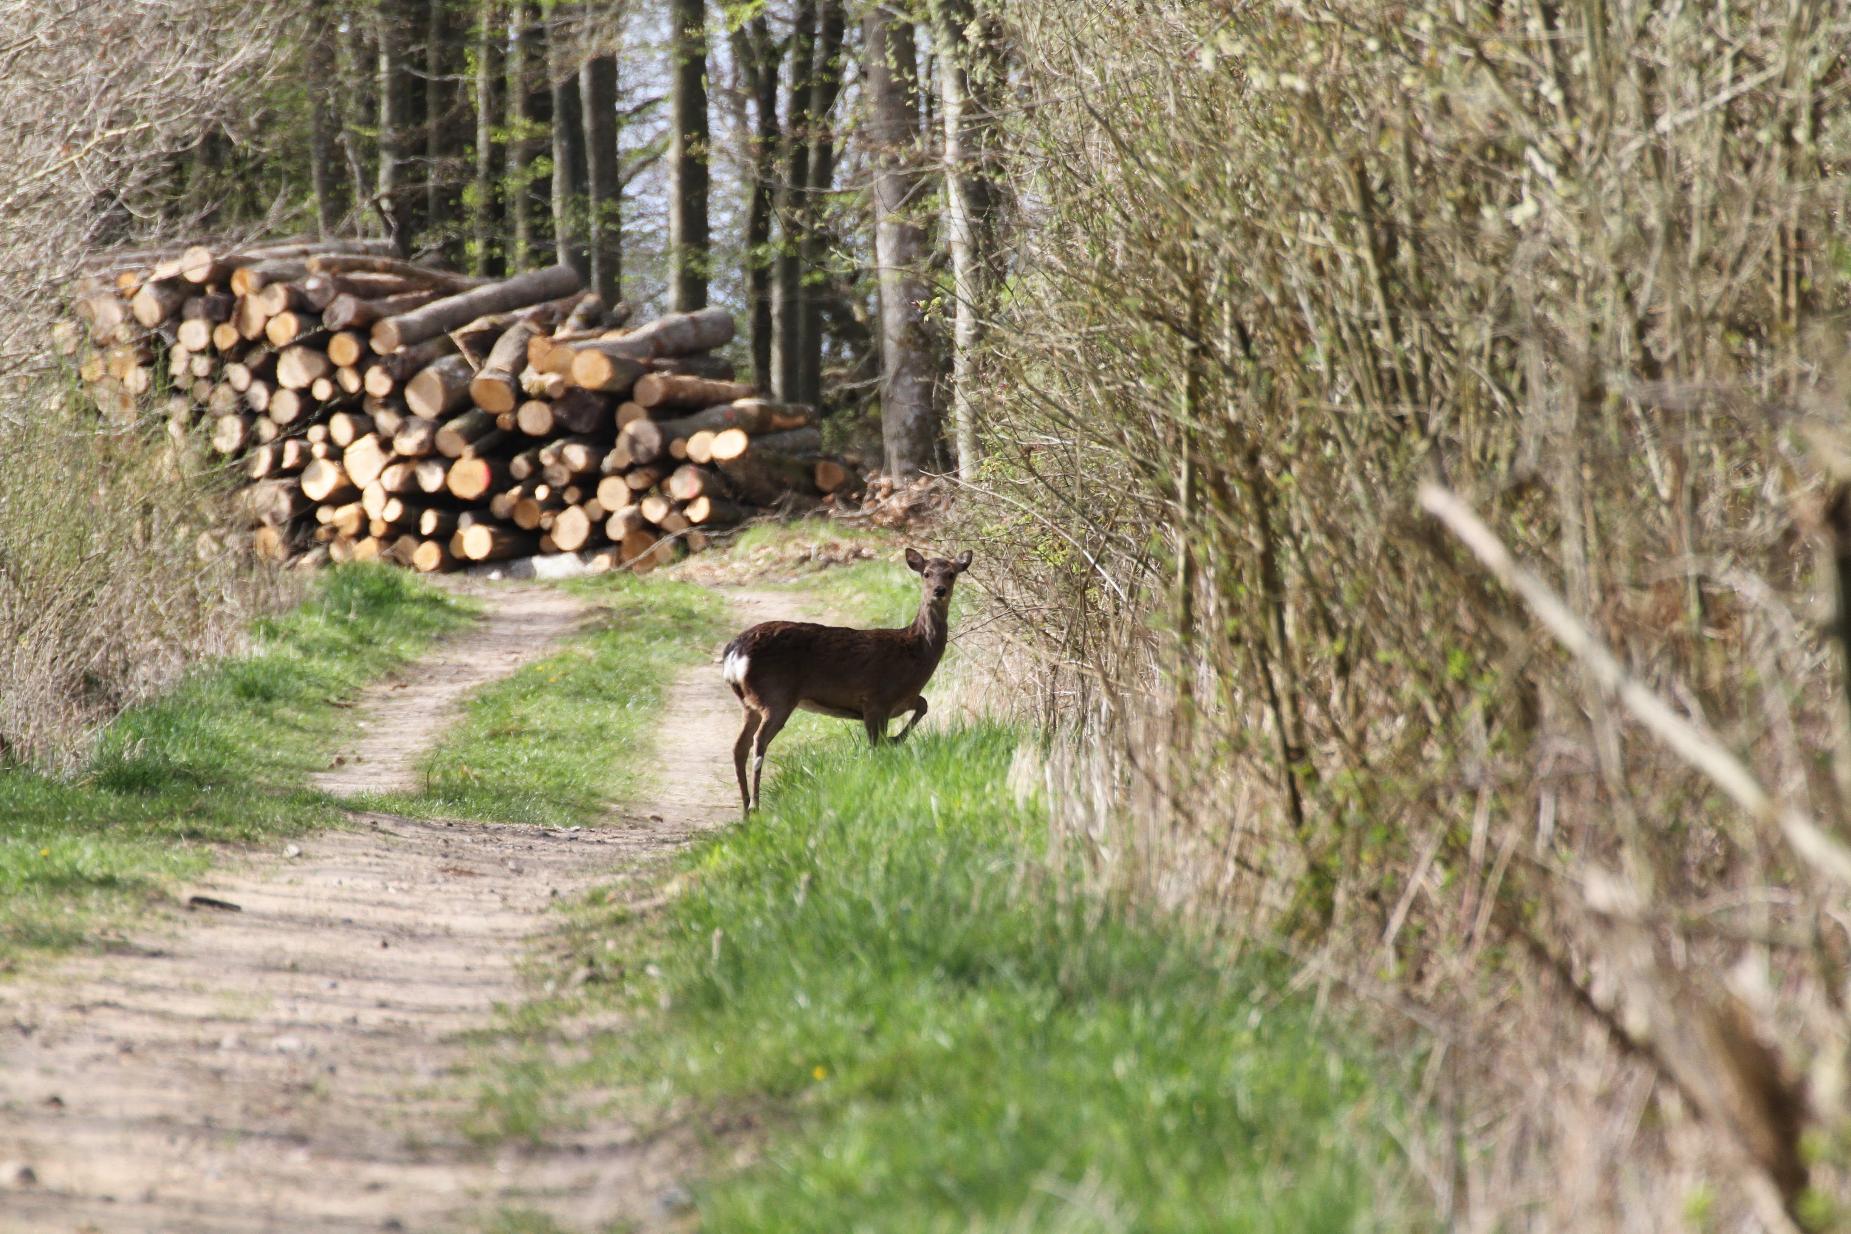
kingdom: Animalia
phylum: Chordata
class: Mammalia
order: Artiodactyla
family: Cervidae
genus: Capreolus
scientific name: Capreolus capreolus
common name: Rådyr
